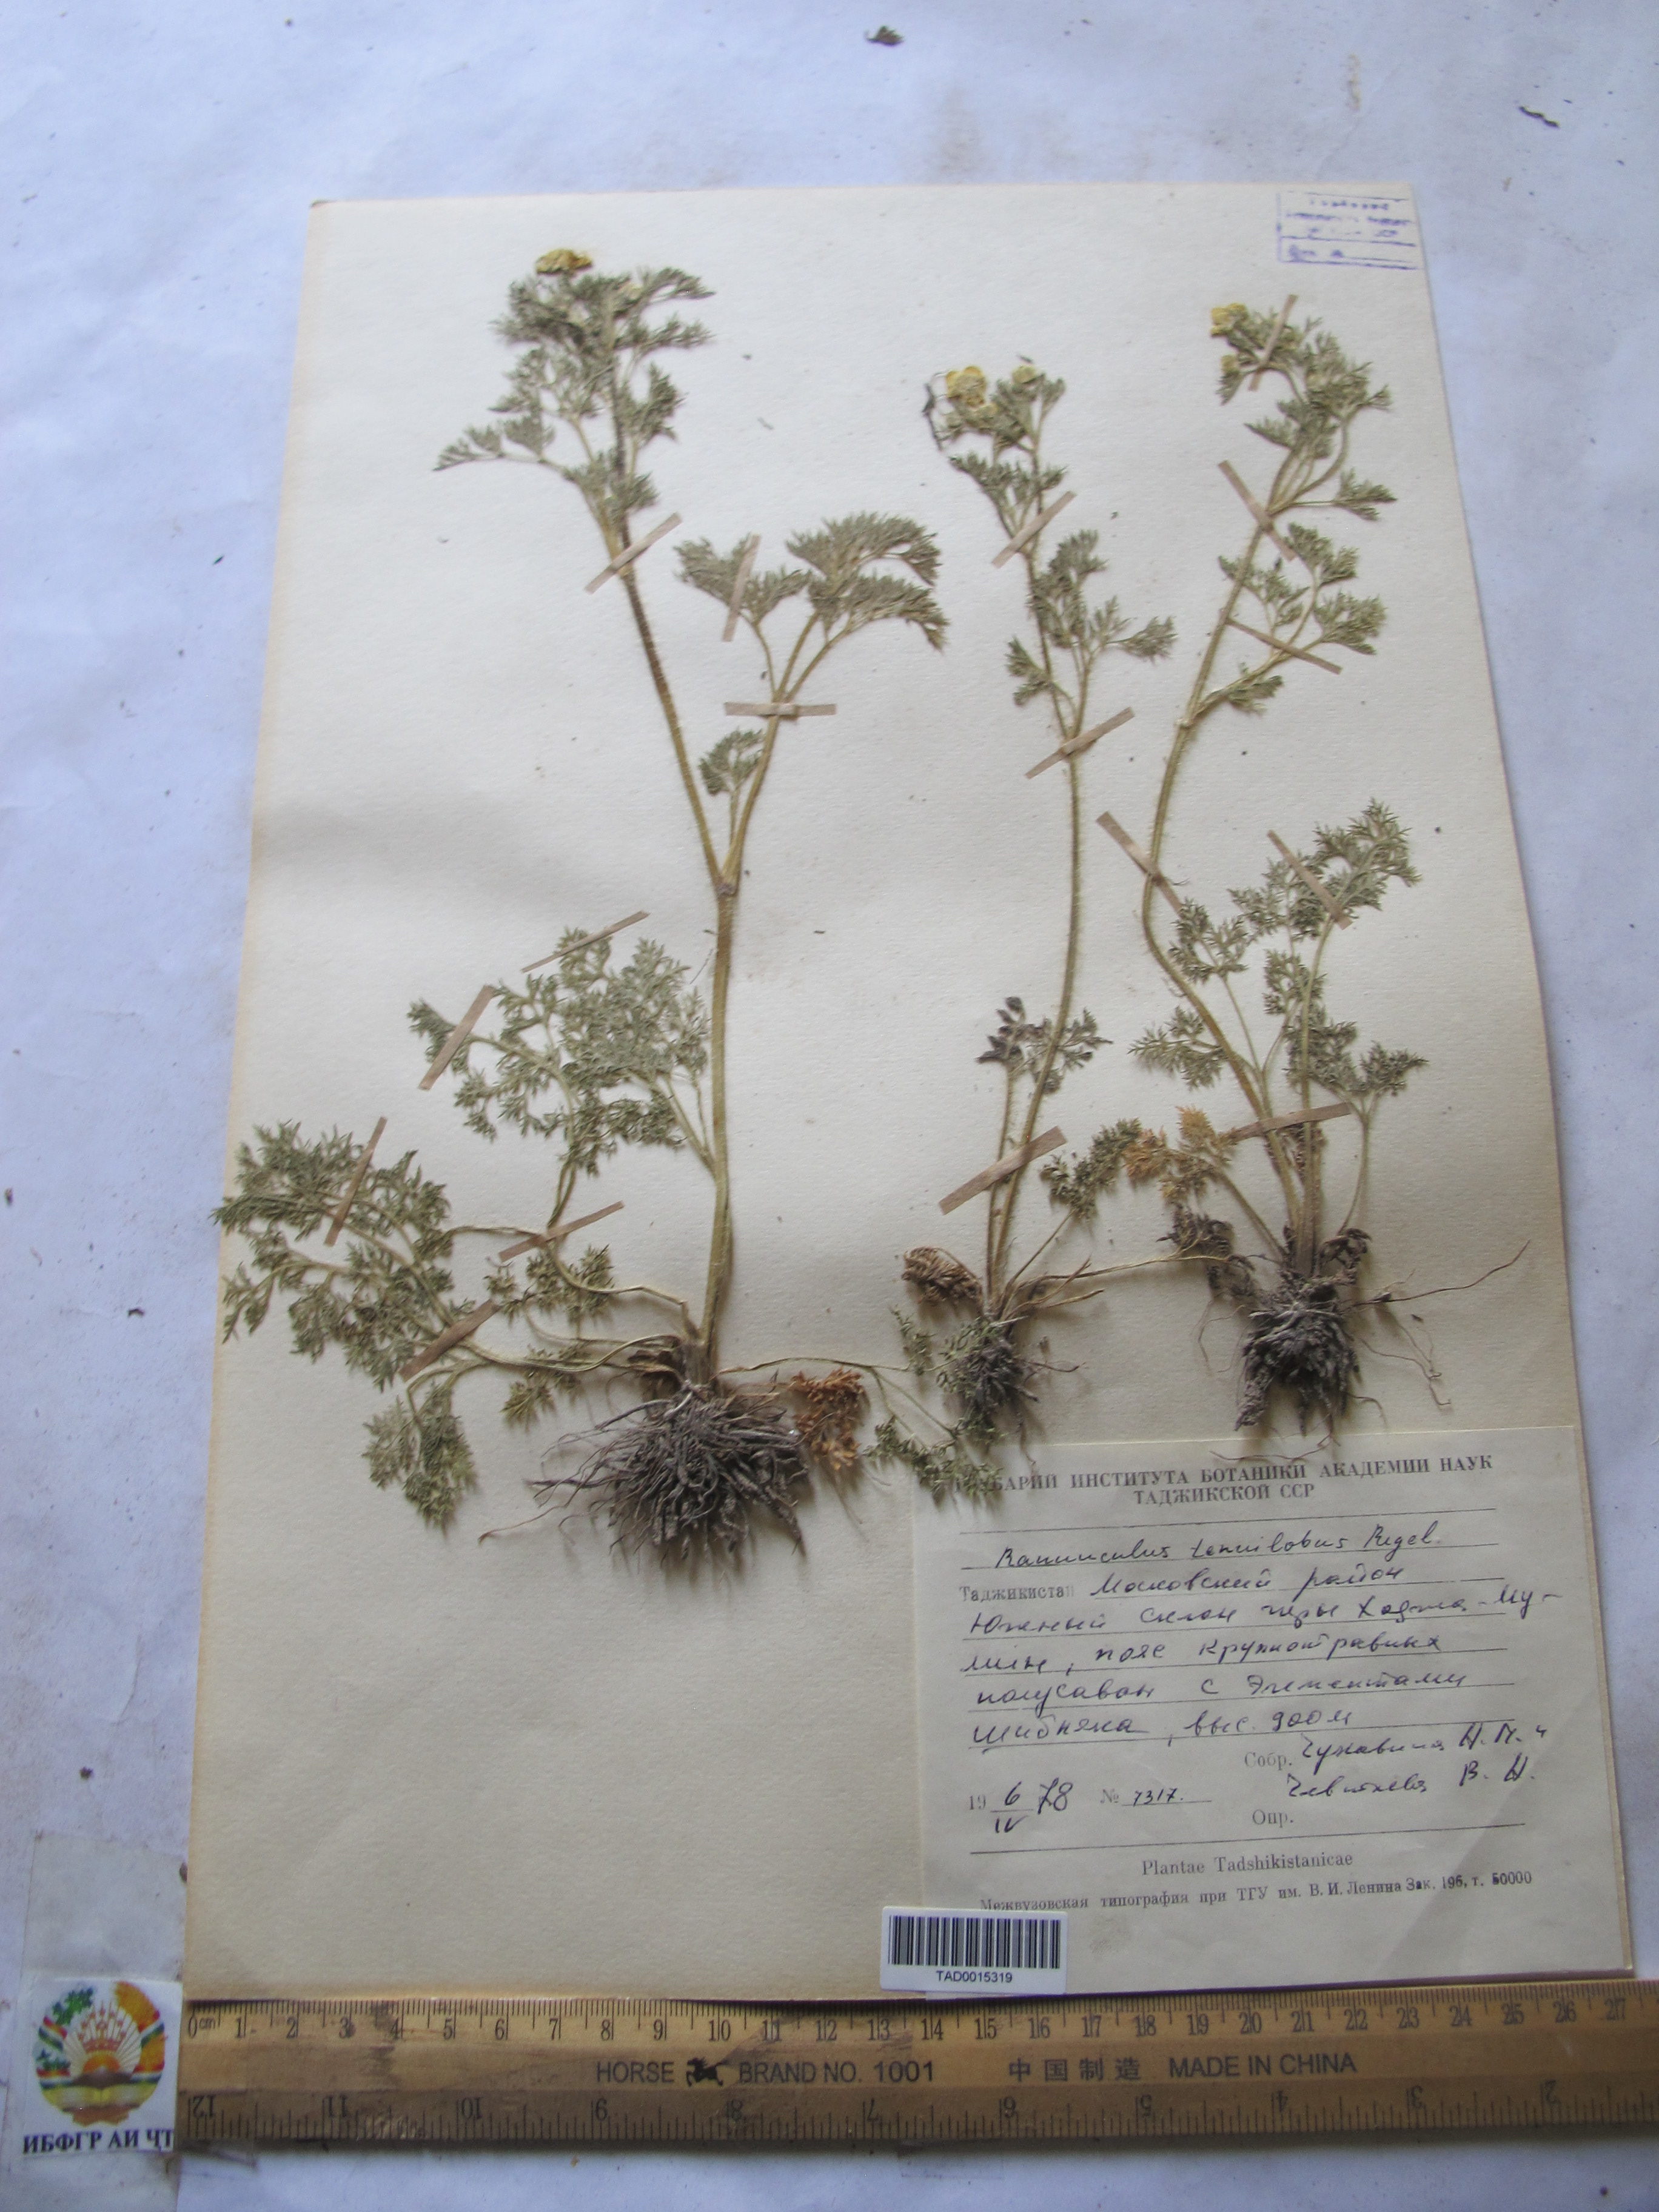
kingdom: Plantae
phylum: Tracheophyta
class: Magnoliopsida
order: Ranunculales
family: Ranunculaceae
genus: Ranunculus
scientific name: Ranunculus tenuilobus
